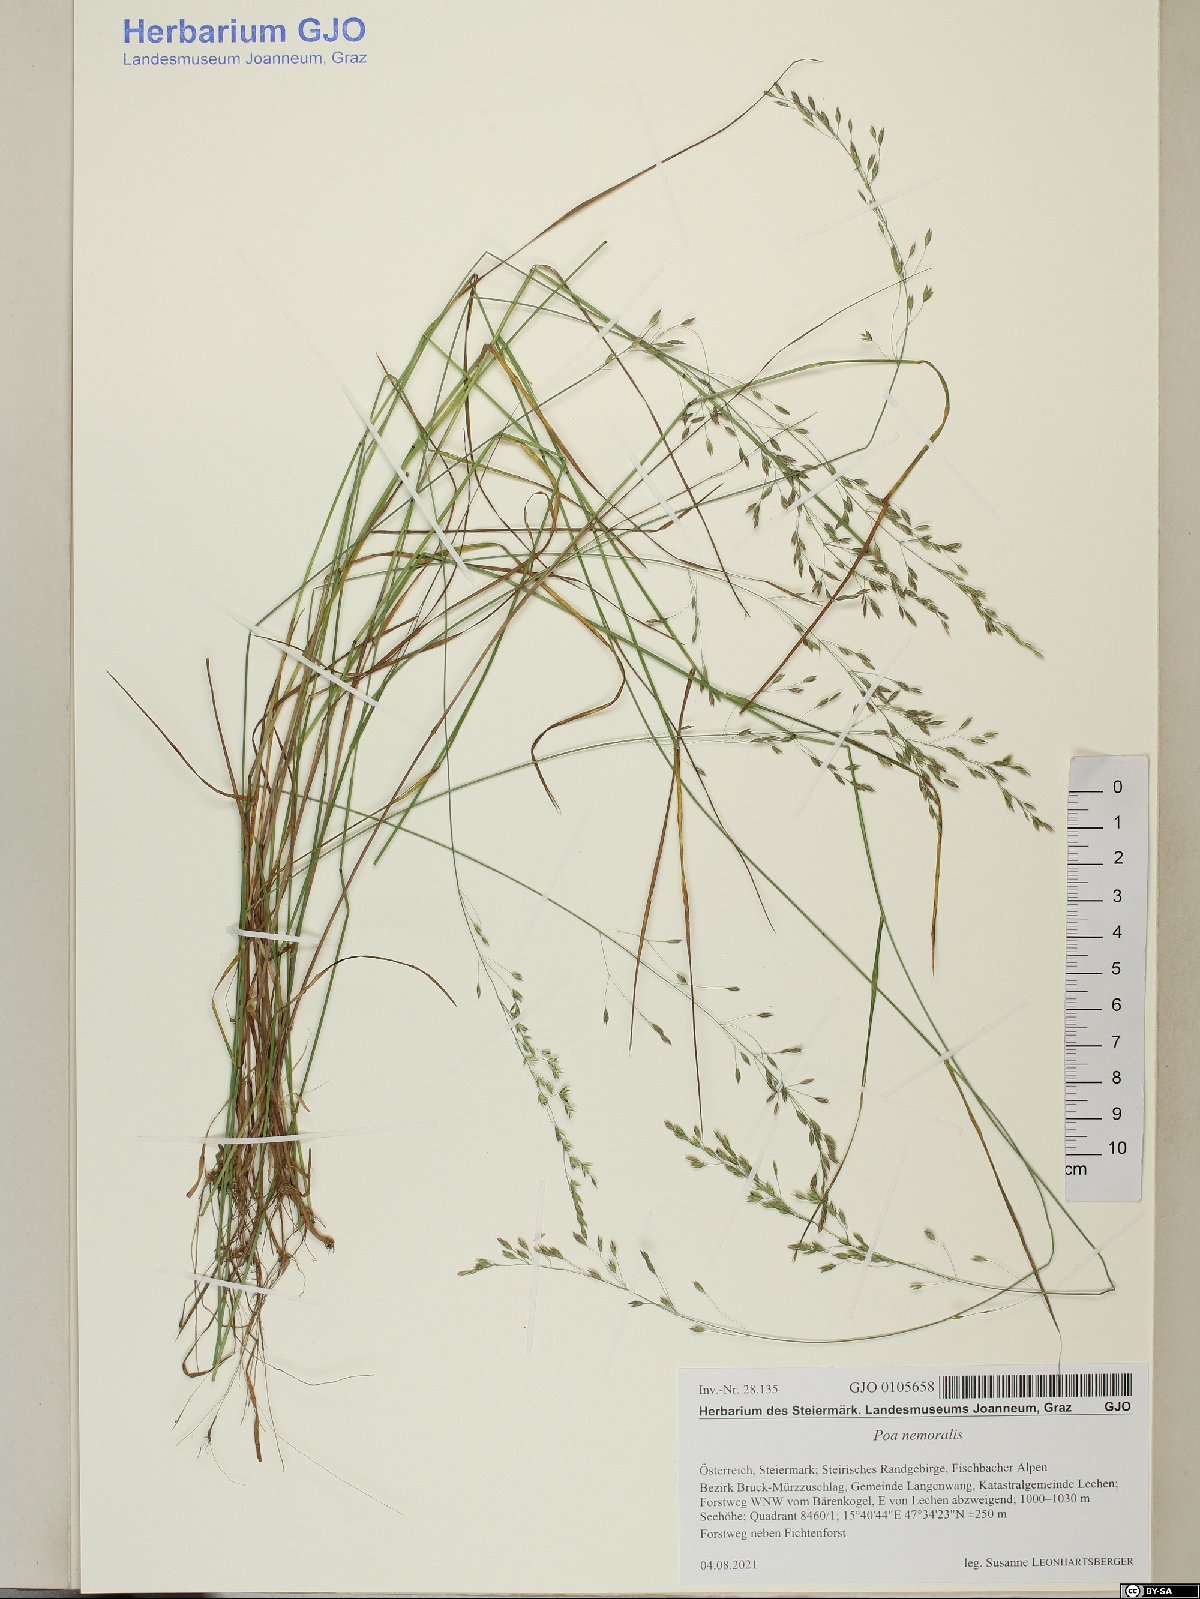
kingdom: Plantae
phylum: Tracheophyta
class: Liliopsida
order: Poales
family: Poaceae
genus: Poa
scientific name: Poa nemoralis
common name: Wood bluegrass
